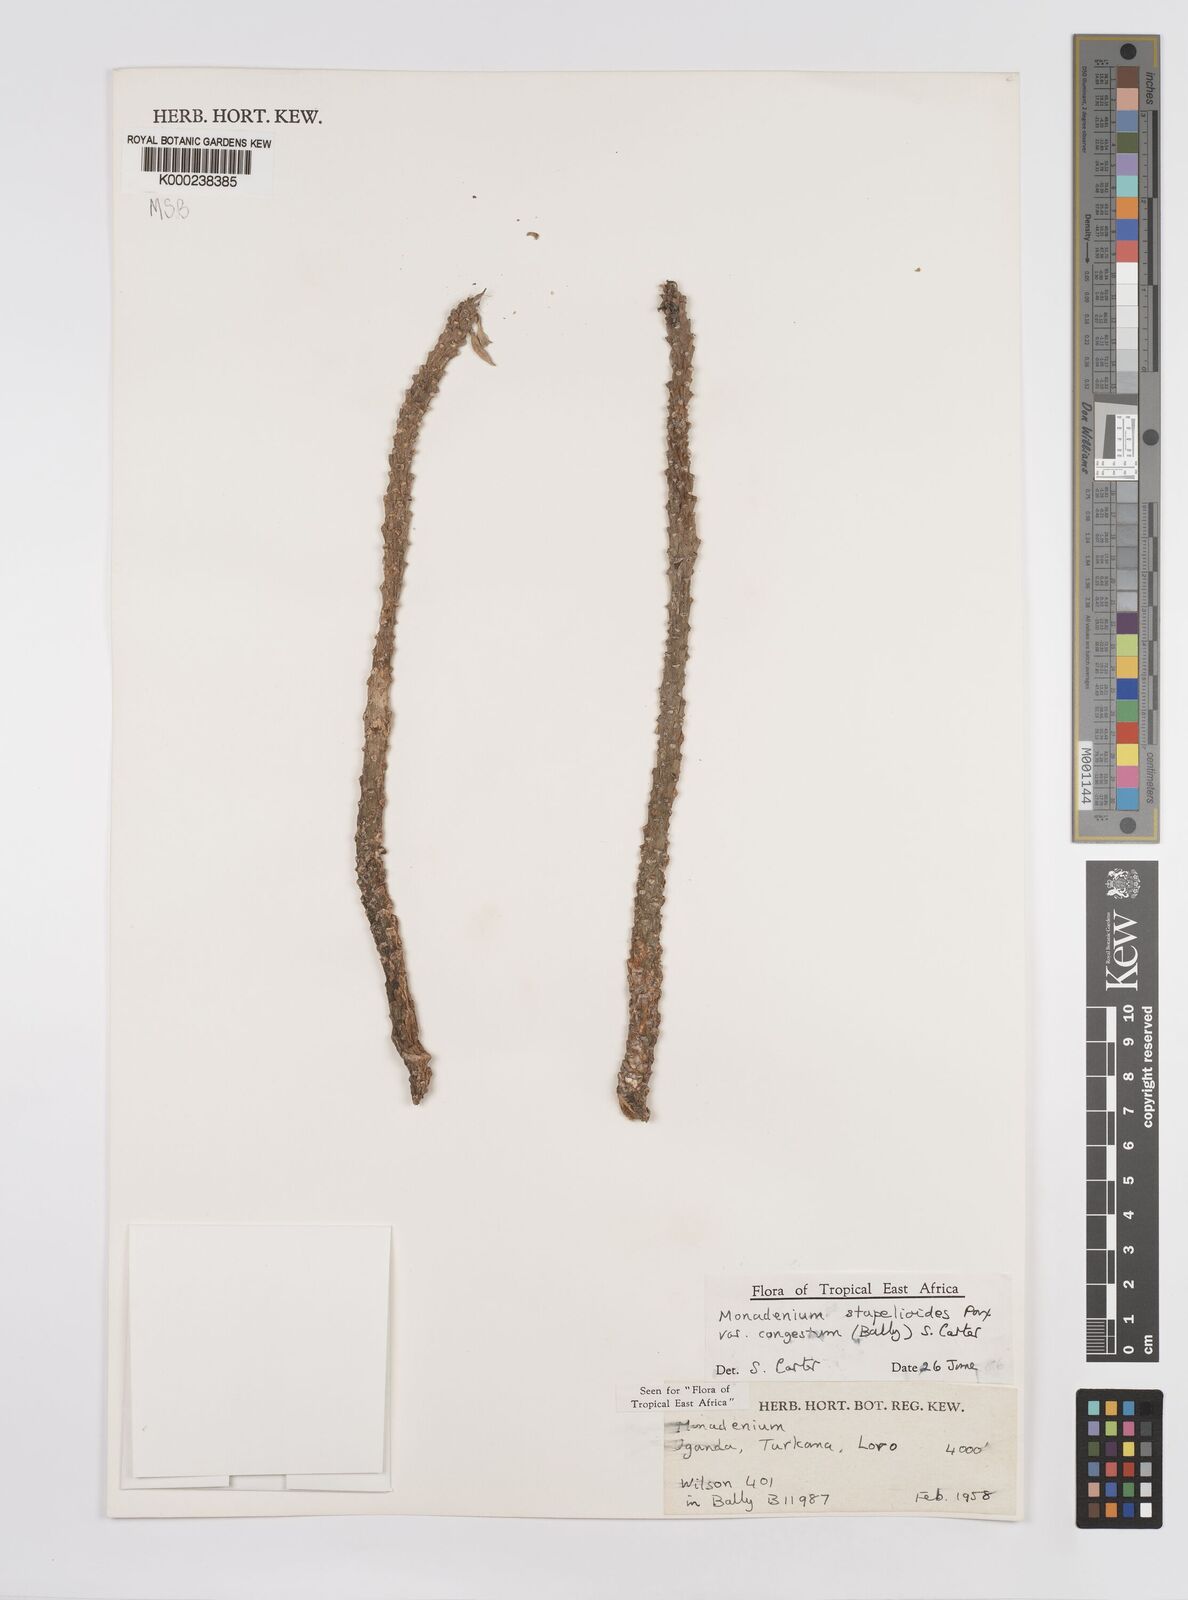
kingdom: Plantae
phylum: Tracheophyta
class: Magnoliopsida
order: Malpighiales
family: Euphorbiaceae
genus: Euphorbia
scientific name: Euphorbia succulenta
